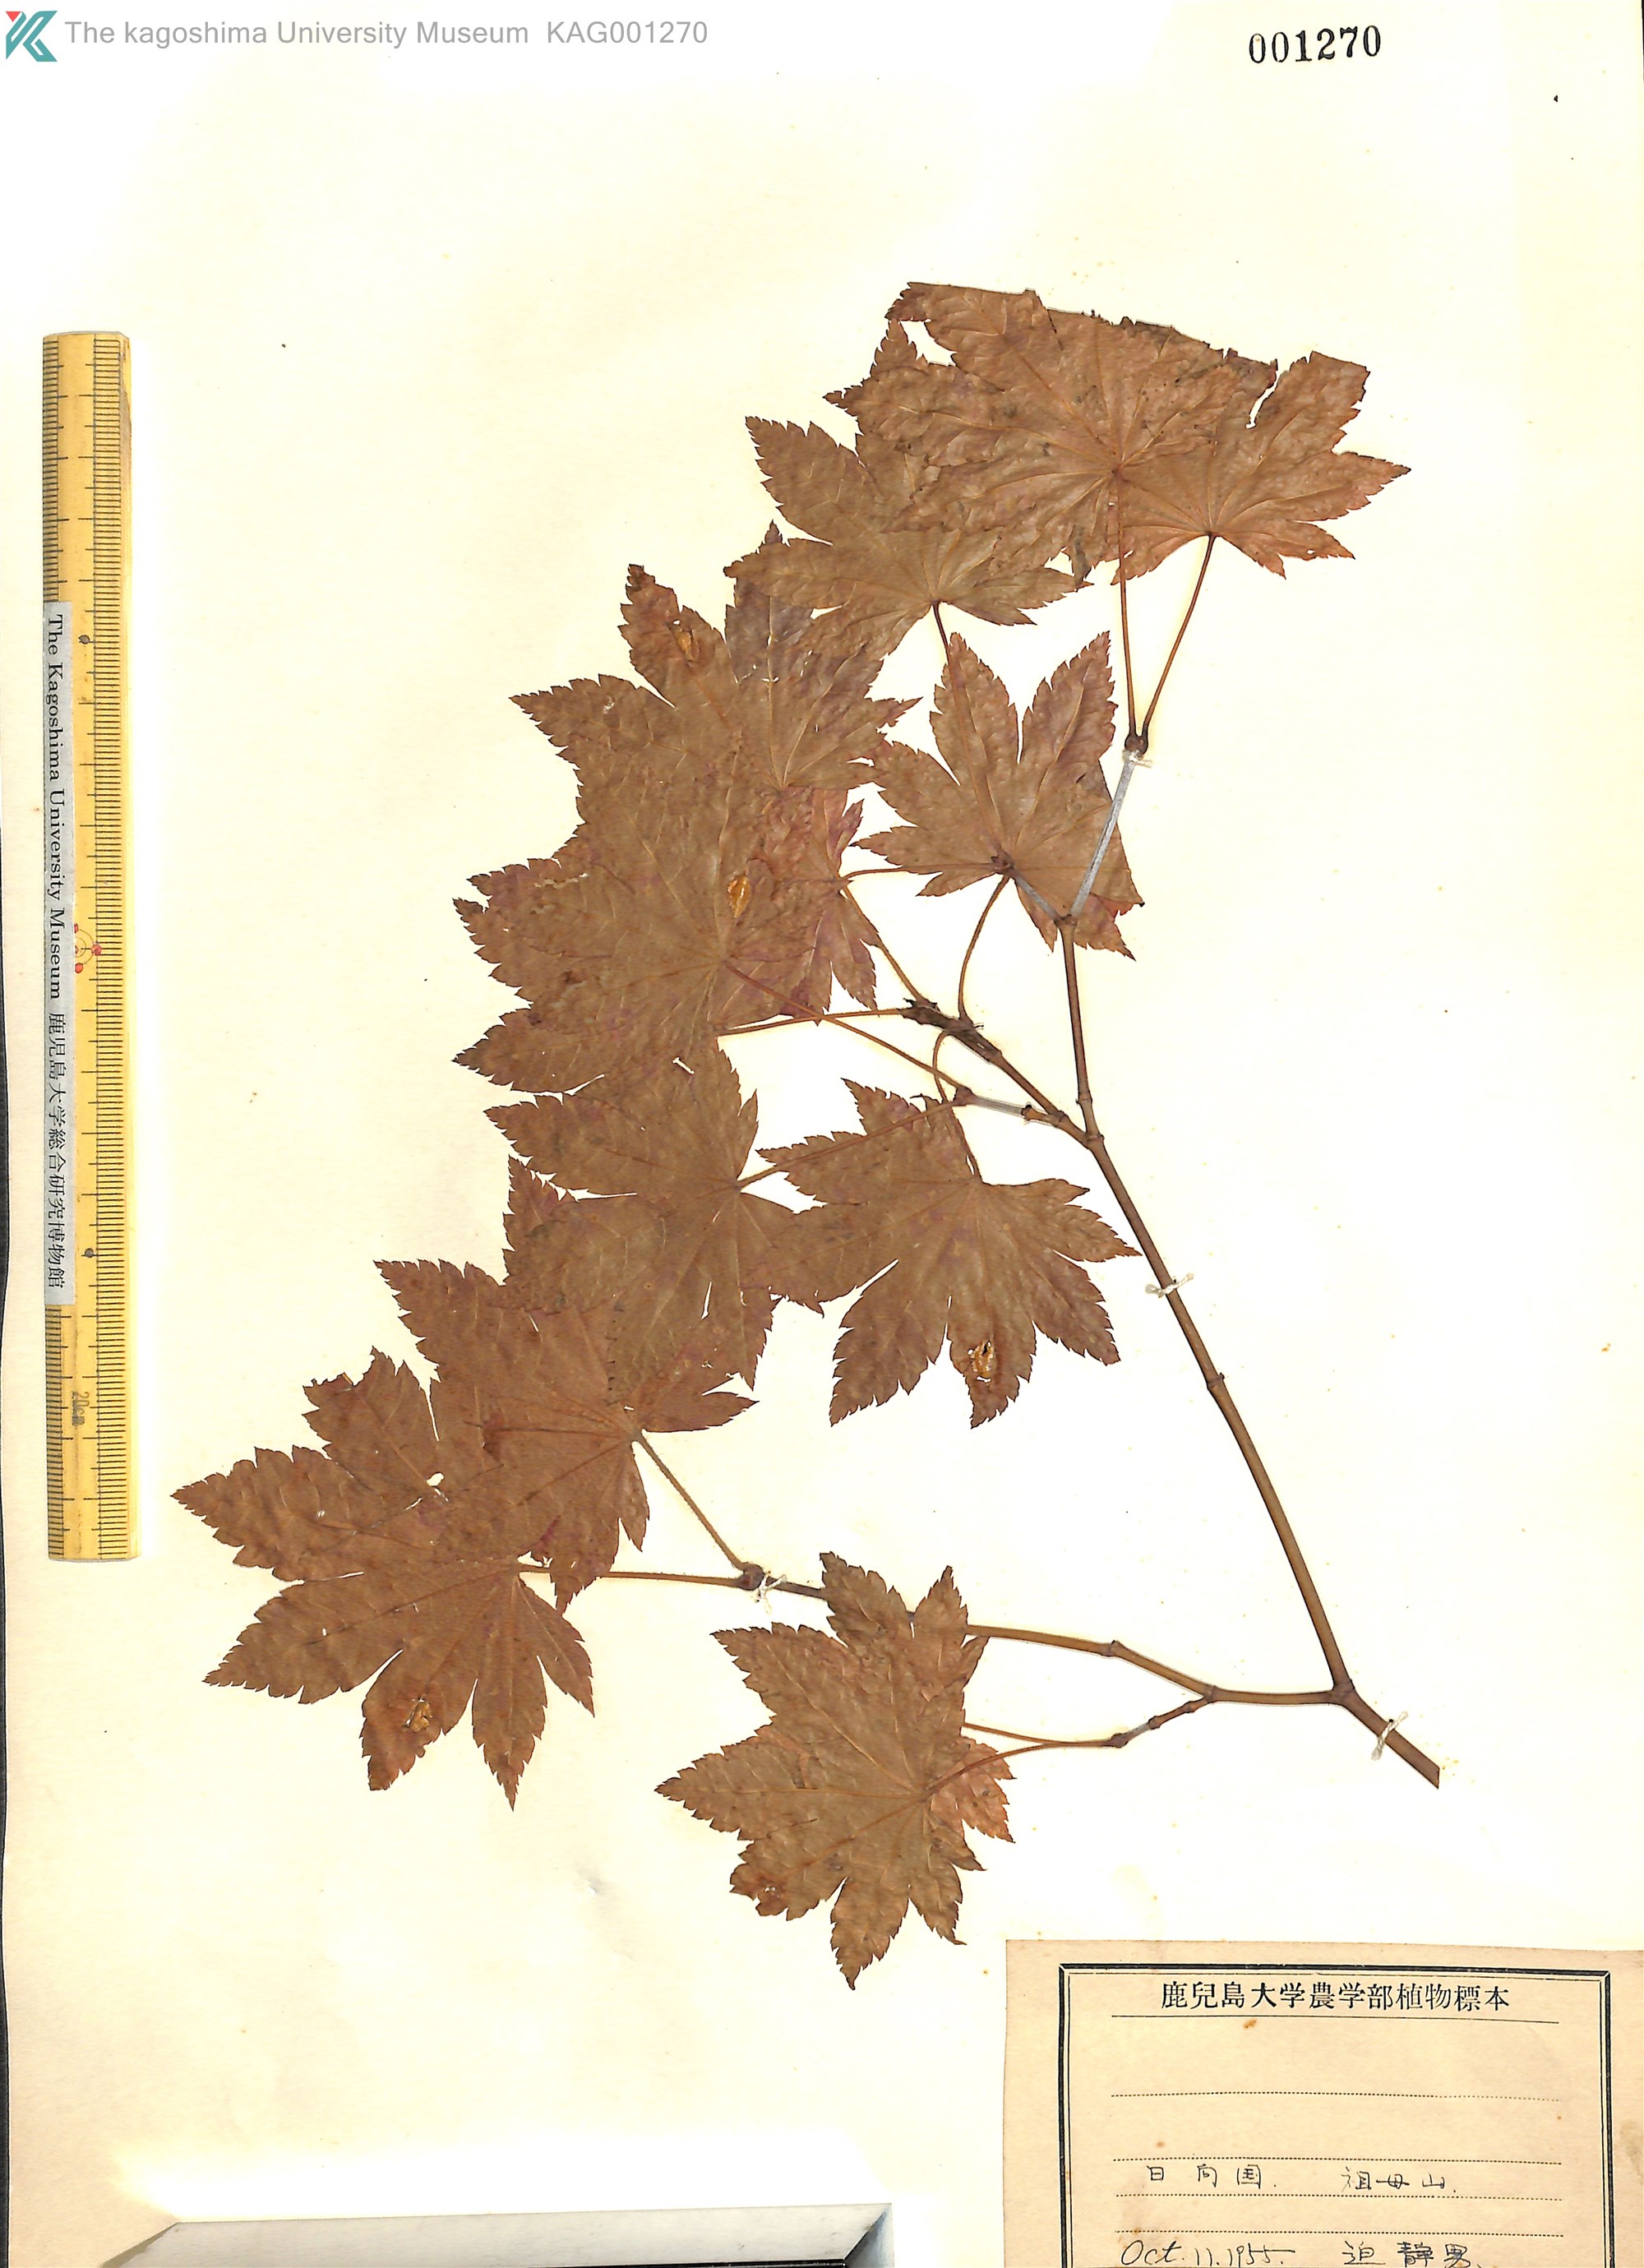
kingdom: Plantae
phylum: Tracheophyta
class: Magnoliopsida
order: Sapindales
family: Sapindaceae
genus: Acer
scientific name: Acer sieboldianum
